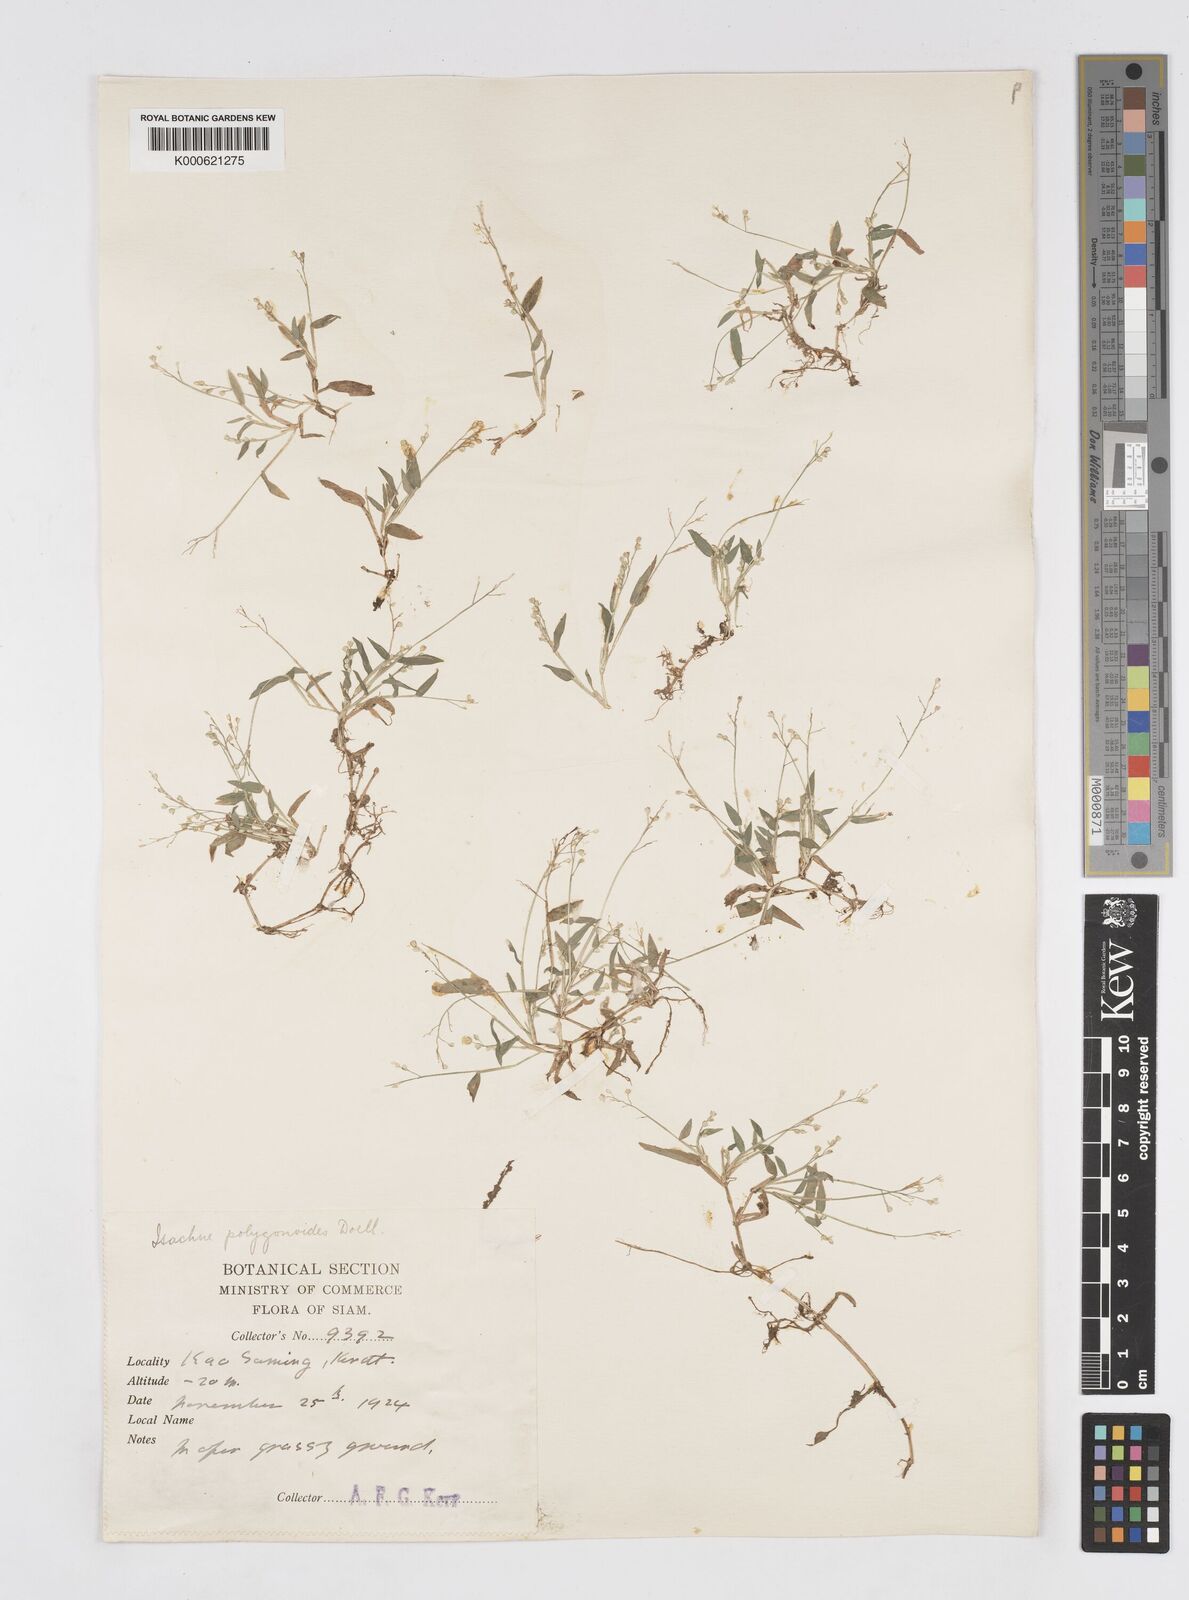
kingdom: Plantae
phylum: Tracheophyta
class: Liliopsida
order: Poales
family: Poaceae
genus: Isachne
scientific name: Isachne
